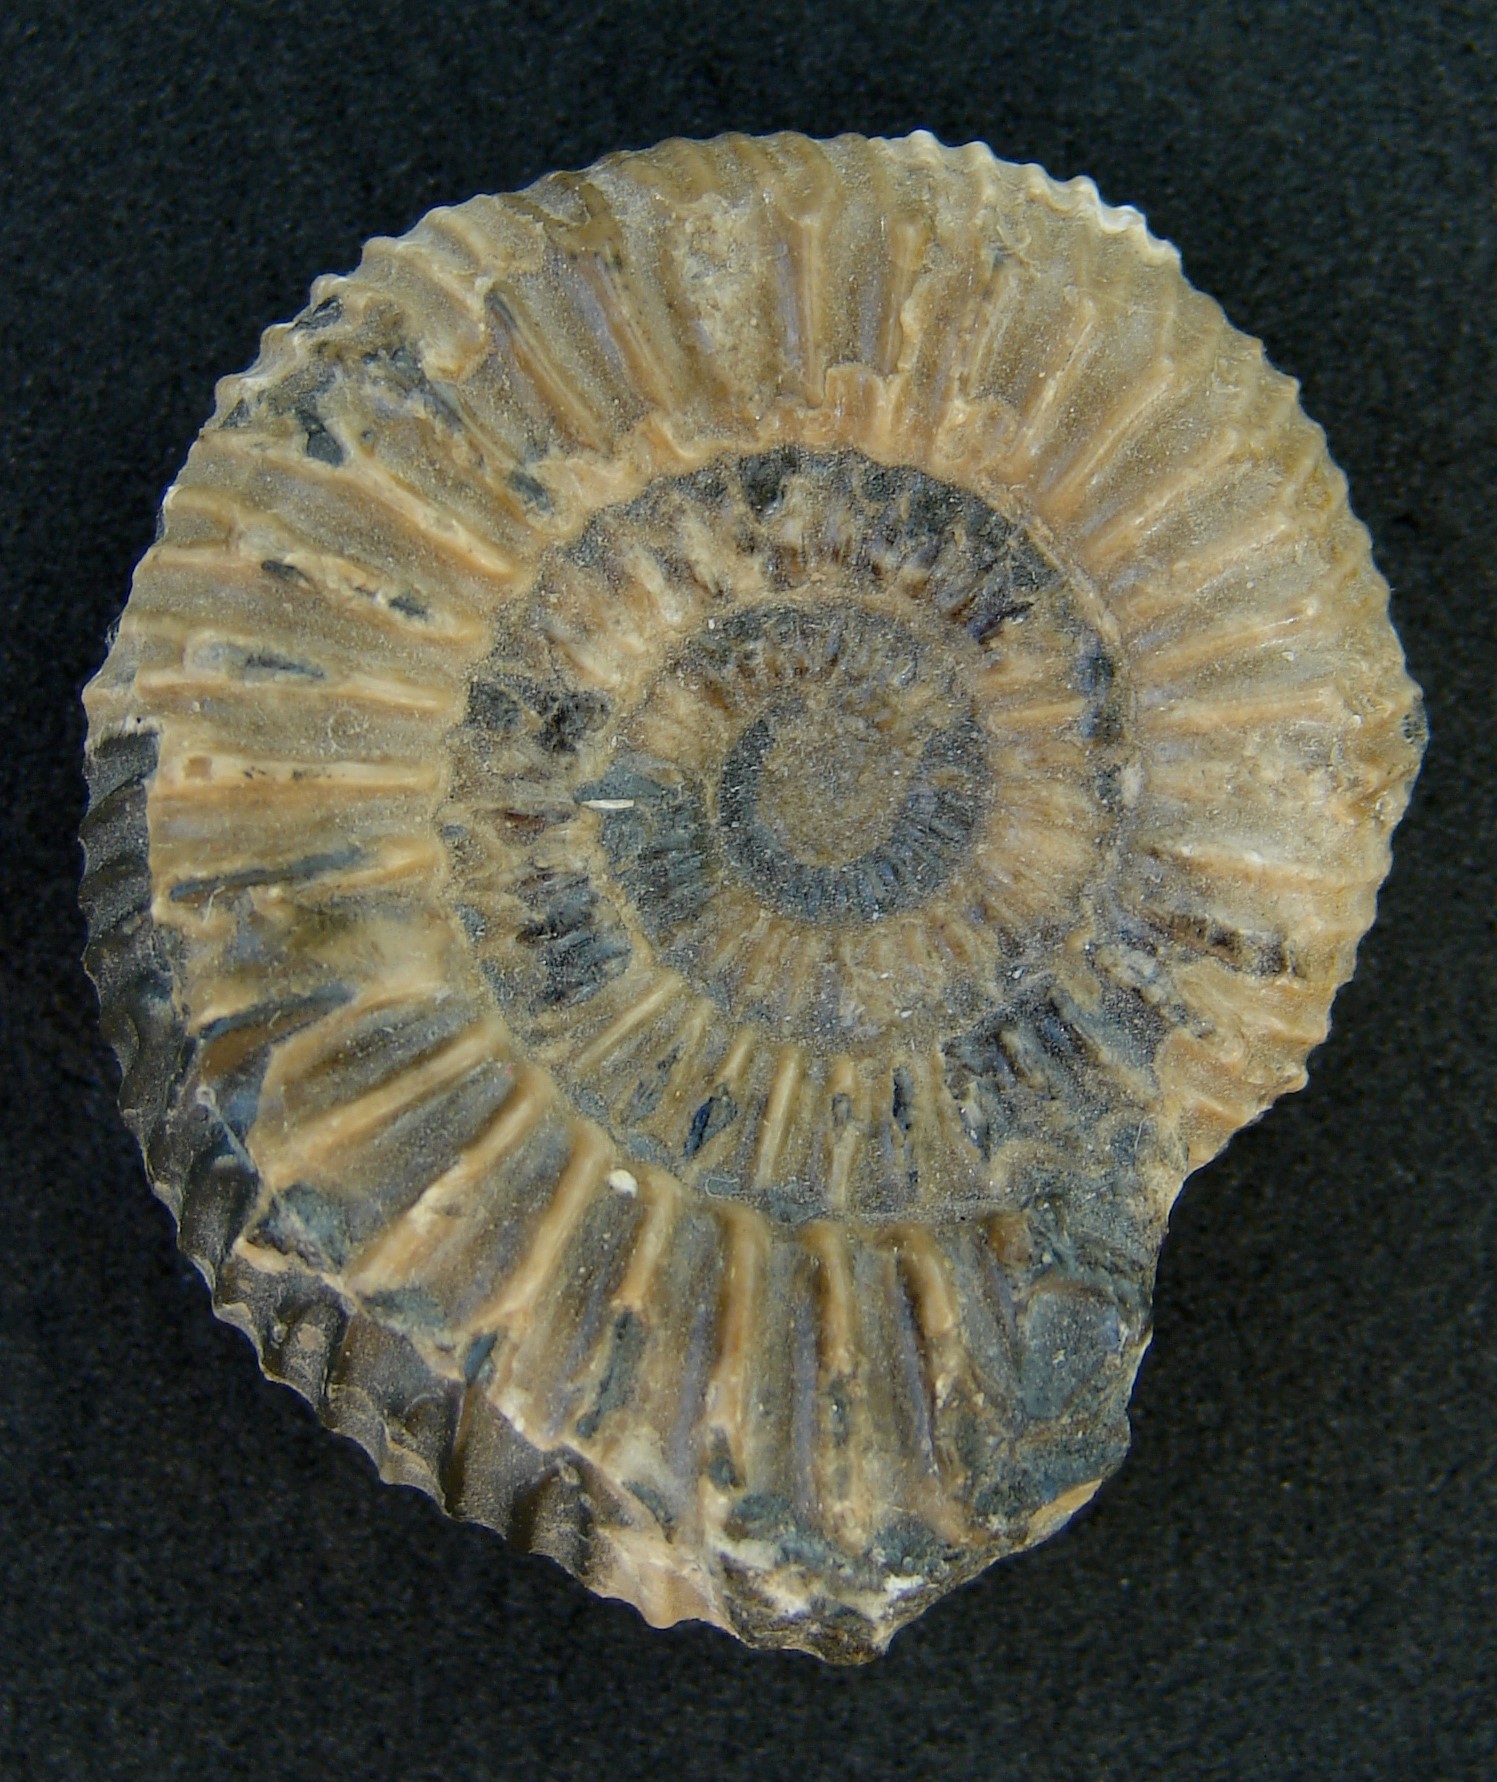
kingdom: Animalia
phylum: Mollusca
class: Cephalopoda
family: Dactylioceratidae
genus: Dactylioceras
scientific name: Dactylioceras crassiusculum
